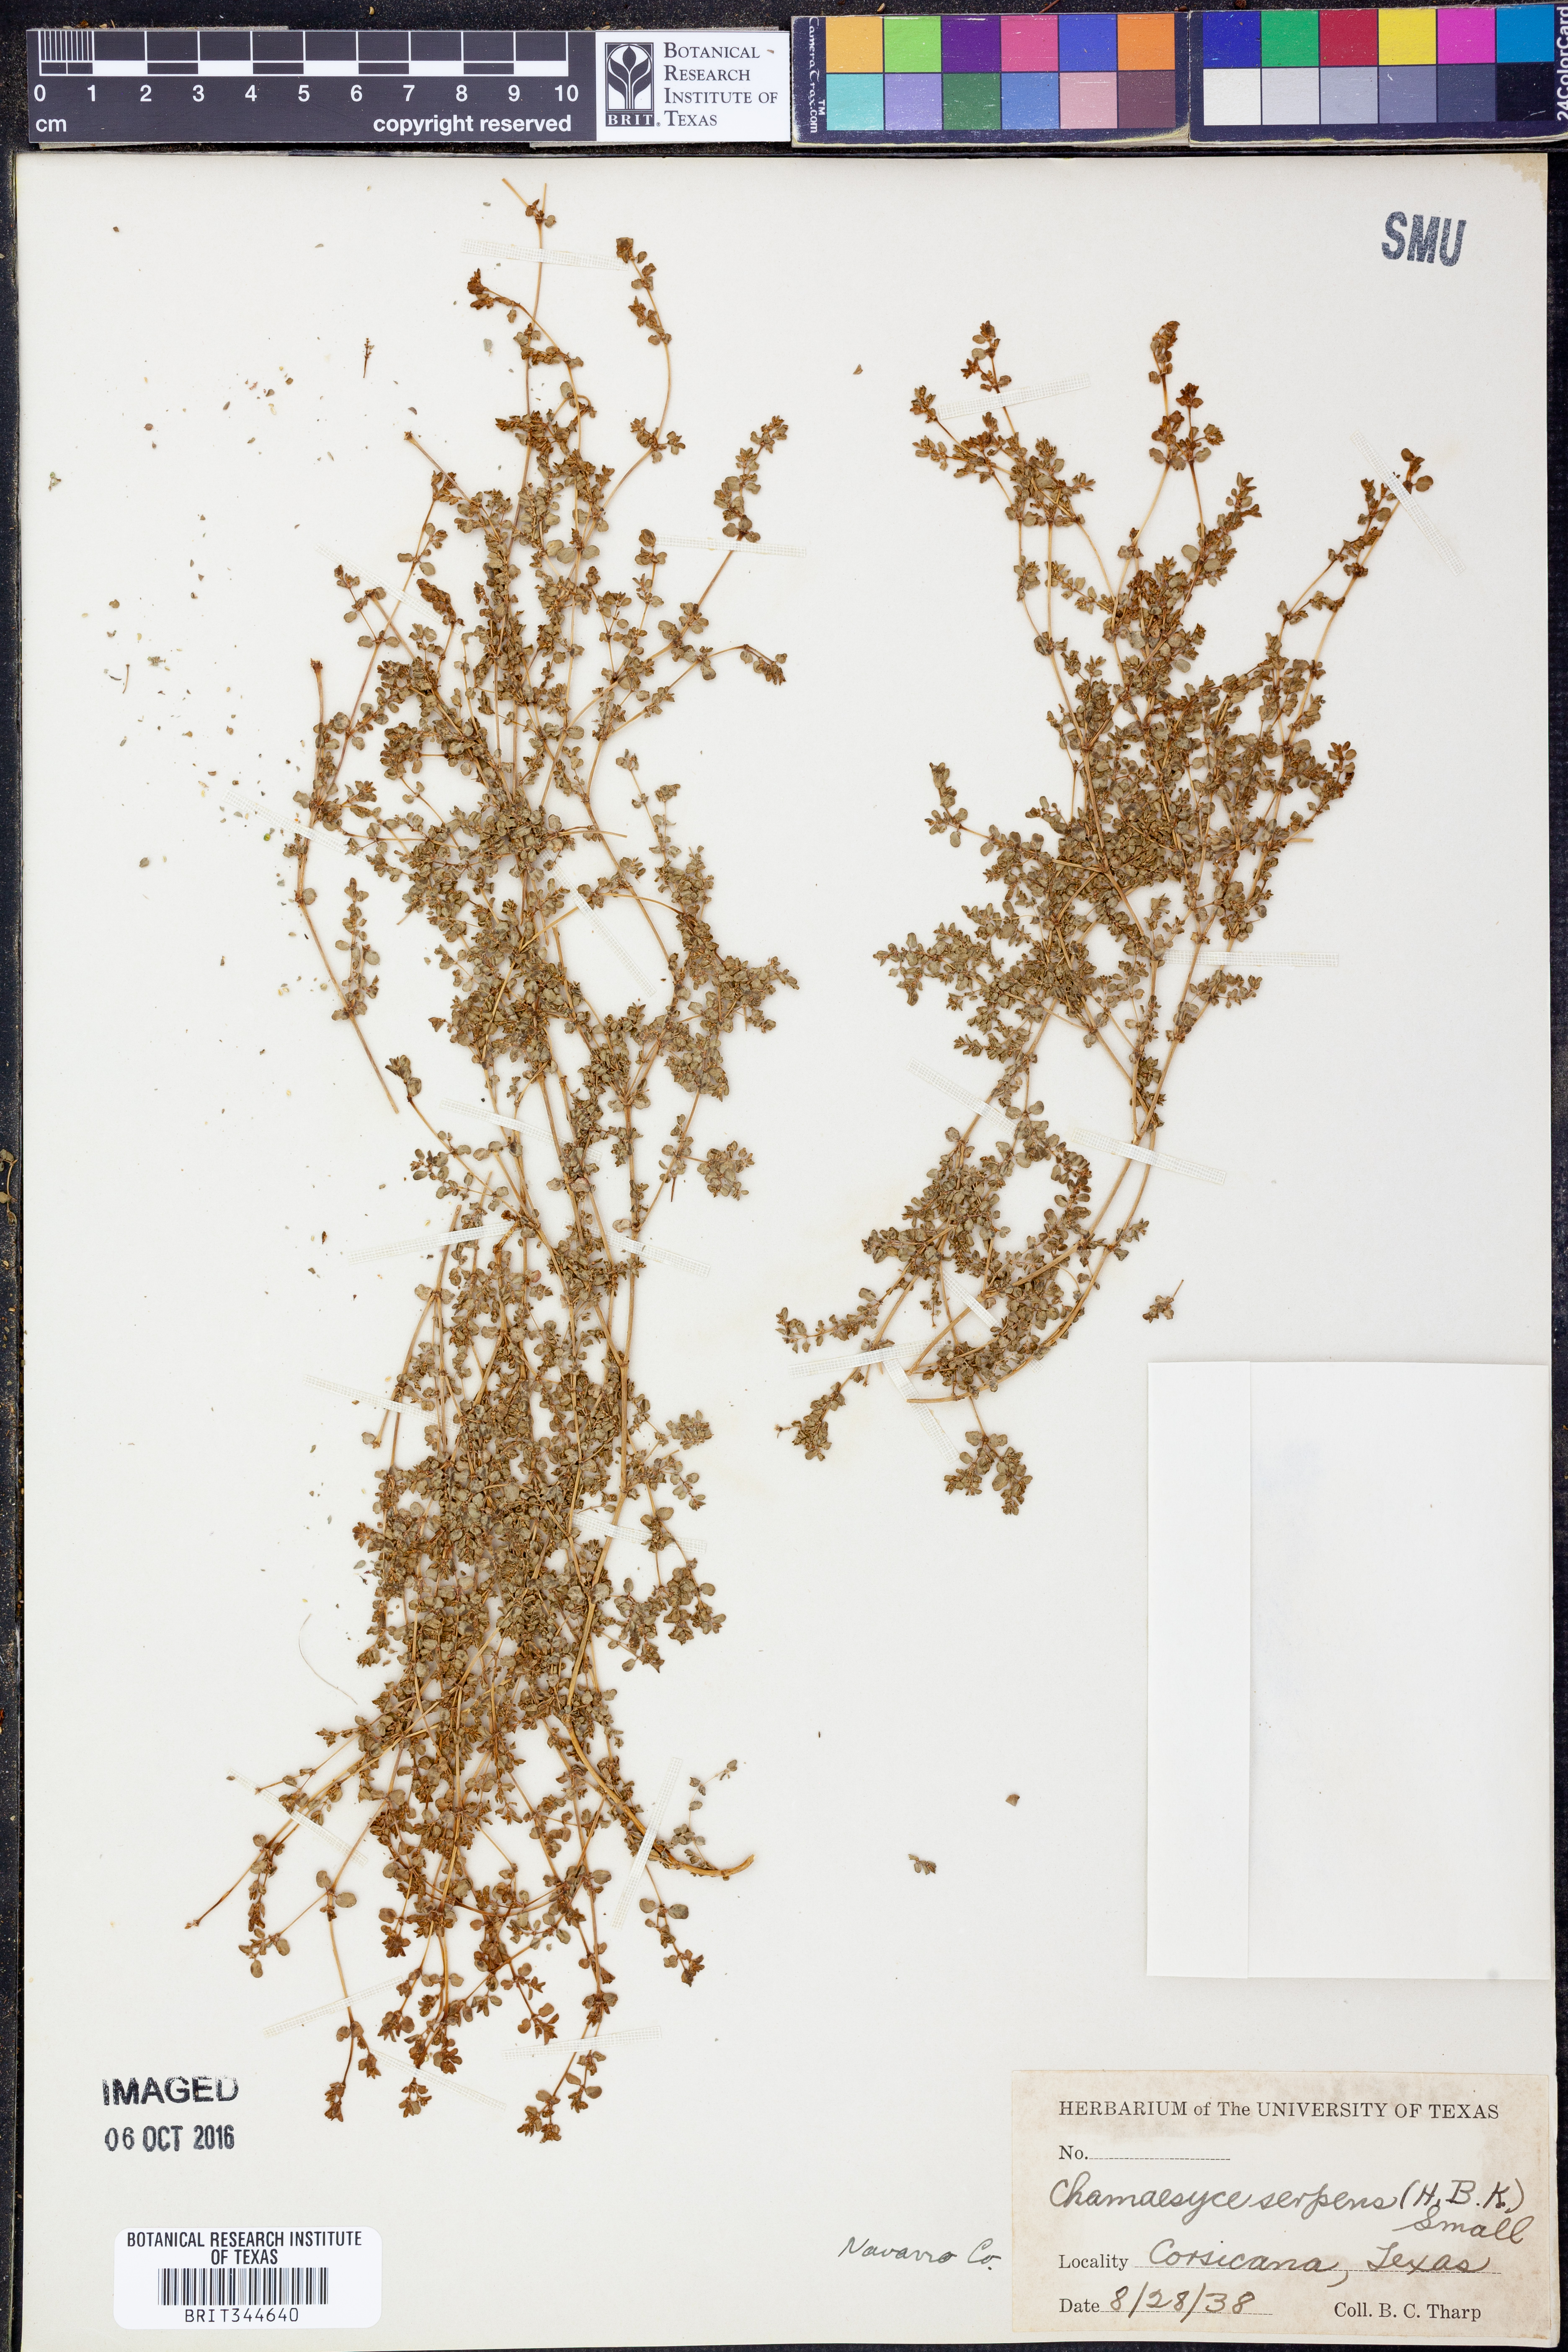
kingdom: Plantae
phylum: Tracheophyta
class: Magnoliopsida
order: Malpighiales
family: Euphorbiaceae
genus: Euphorbia
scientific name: Euphorbia serpens
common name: Matted sandmat
